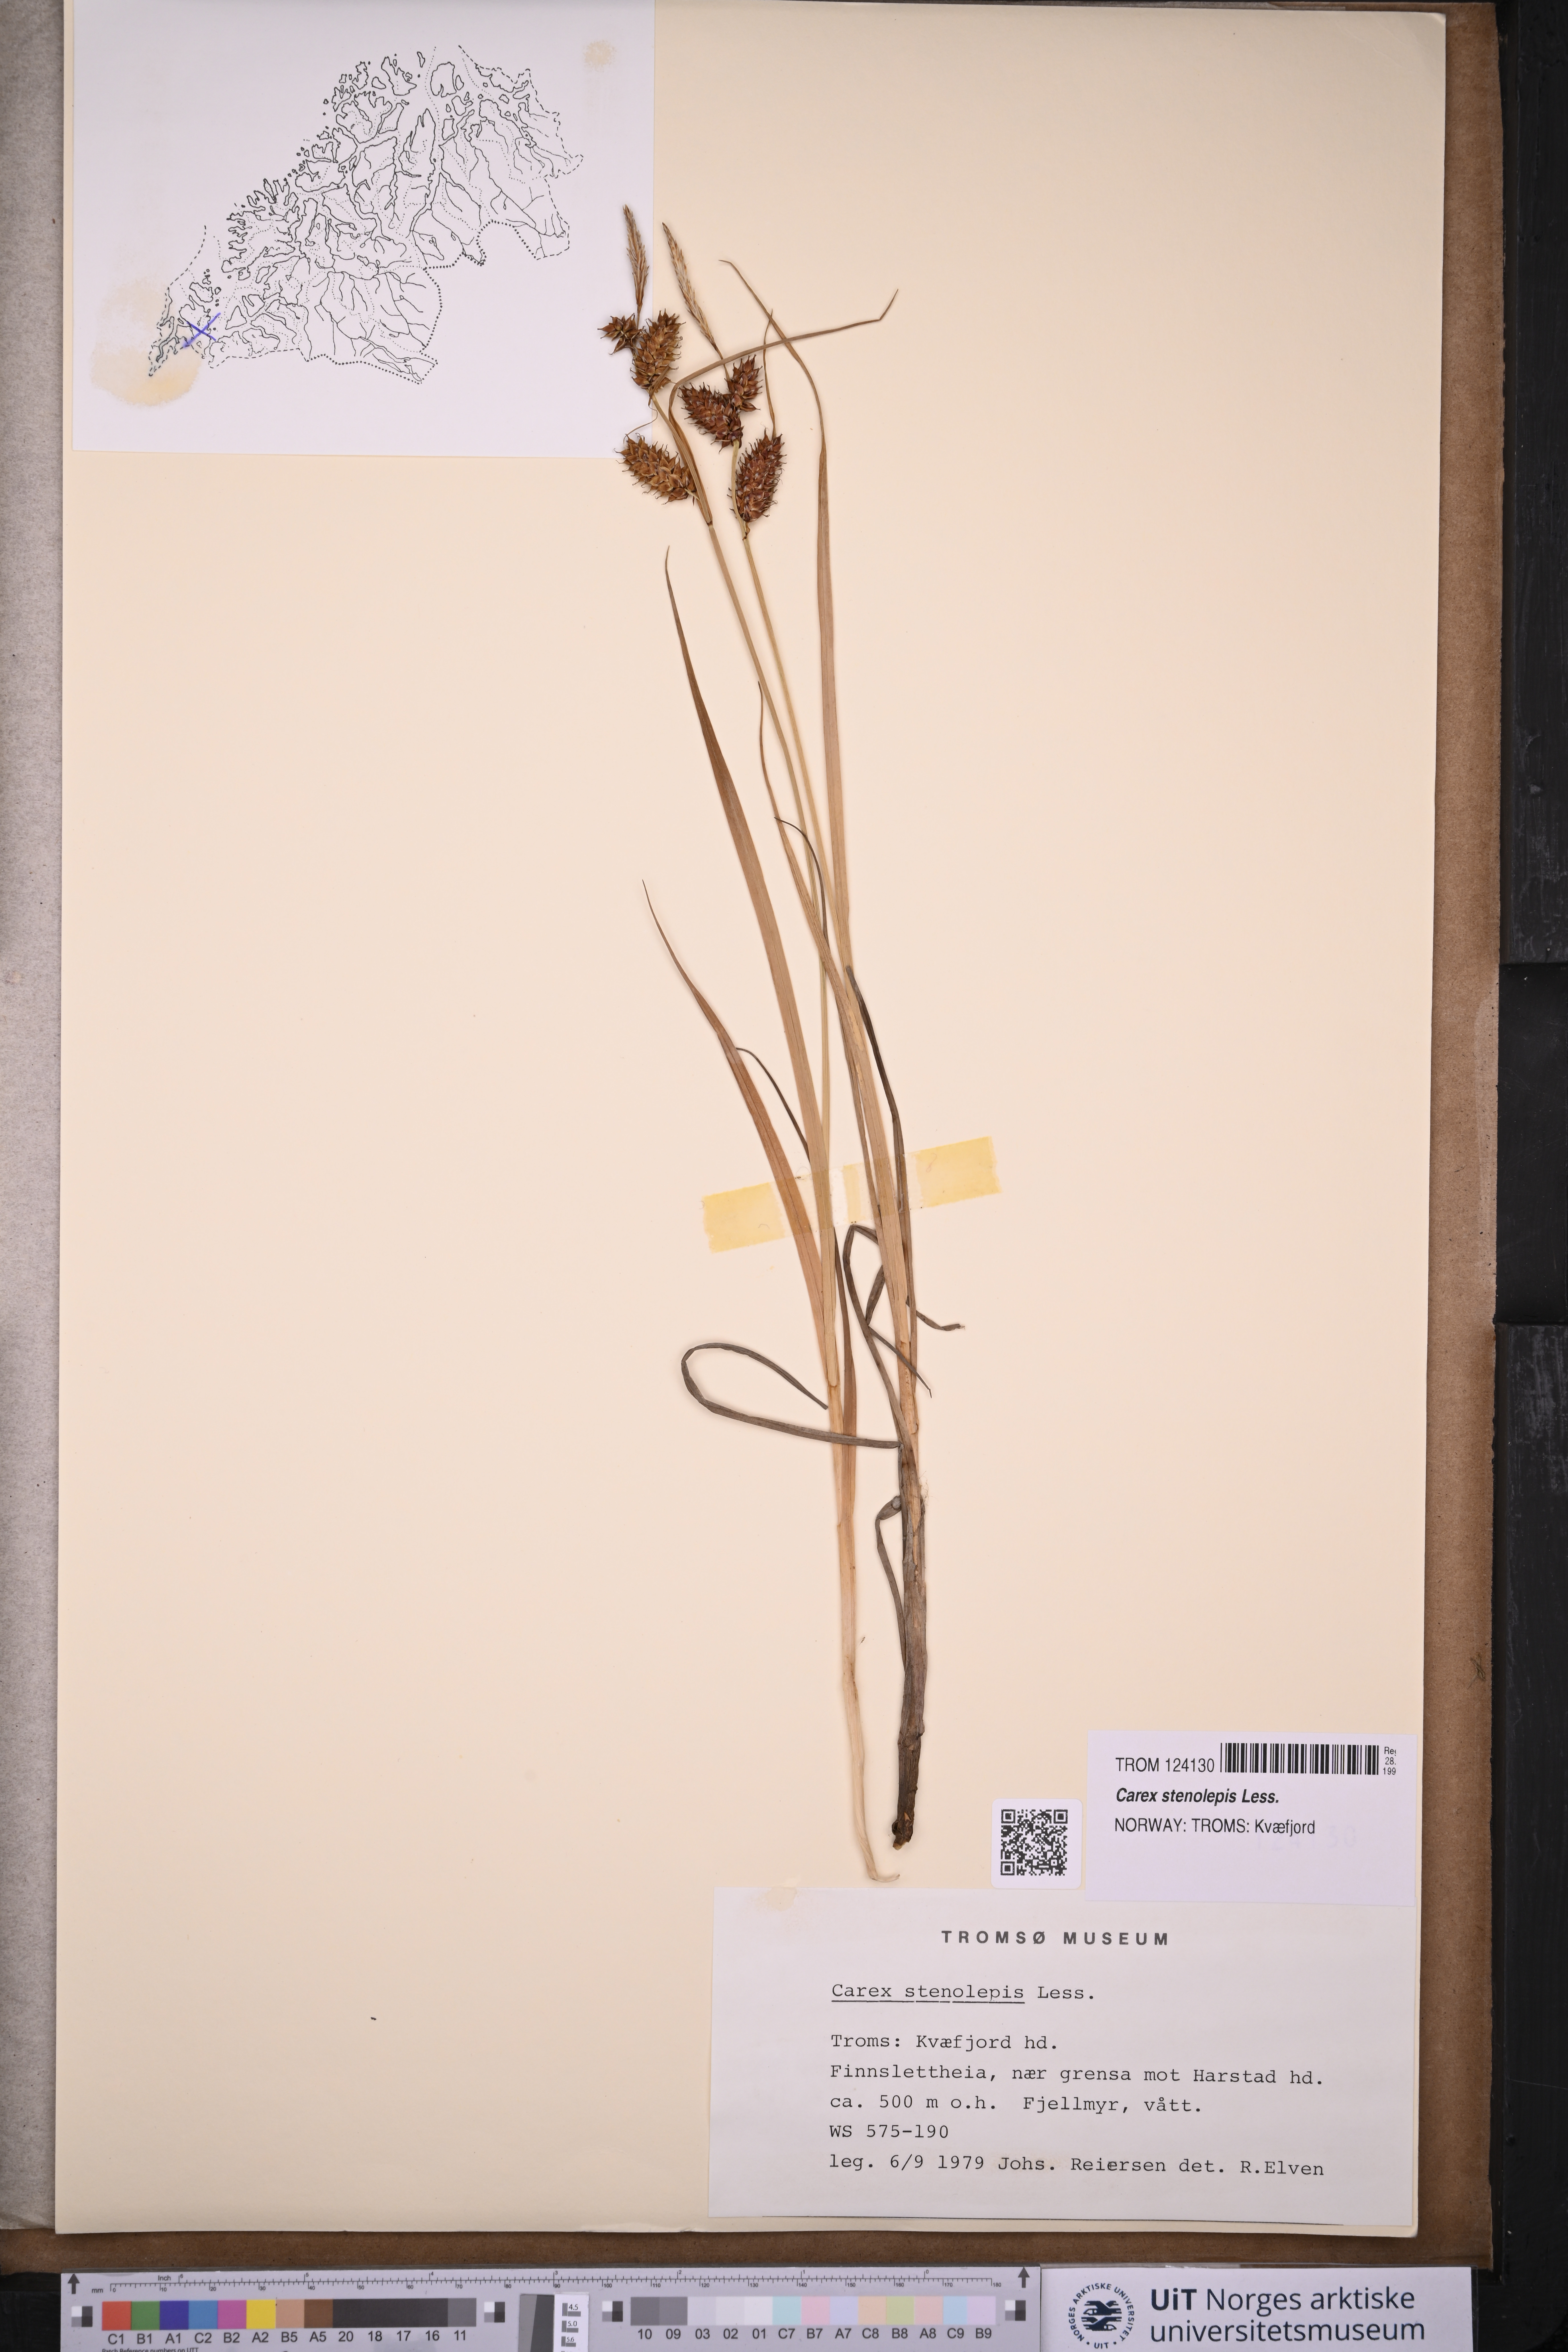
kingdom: Plantae
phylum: Tracheophyta
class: Liliopsida
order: Poales
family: Cyperaceae
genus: Carex
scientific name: Carex grahamii
